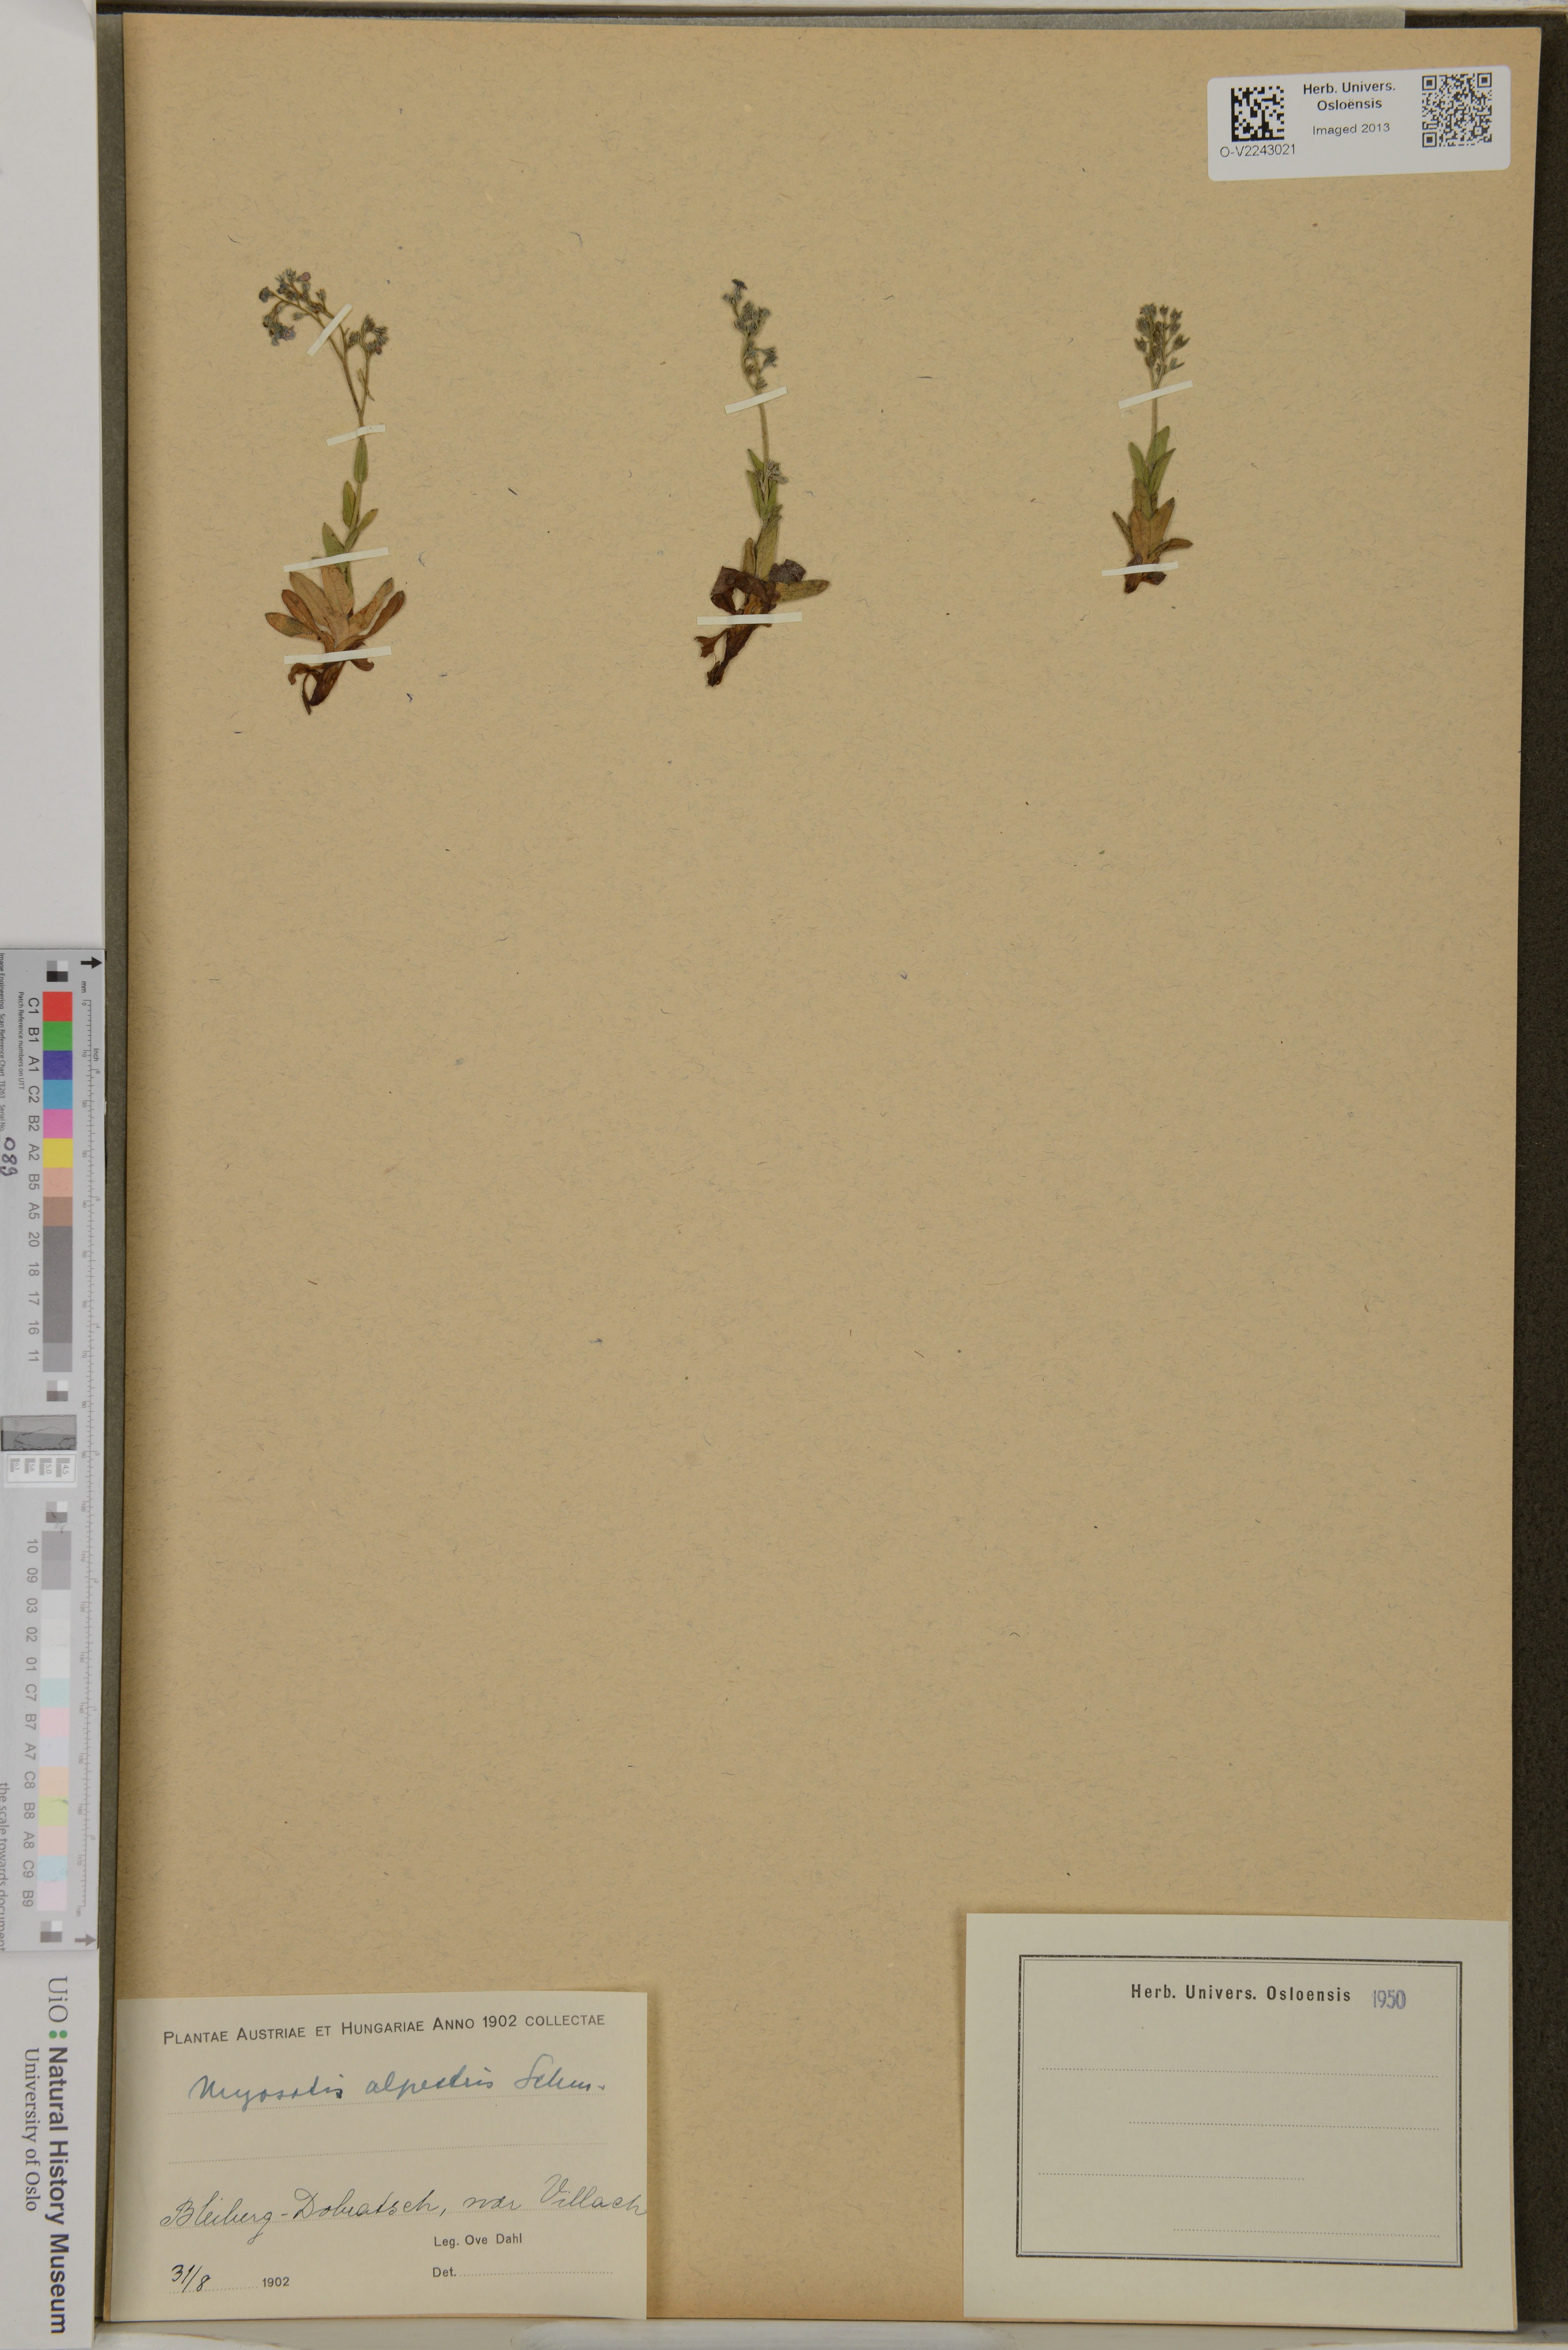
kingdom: Plantae
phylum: Tracheophyta
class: Magnoliopsida
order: Boraginales
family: Boraginaceae
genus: Myosotis
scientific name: Myosotis alpestris
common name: Alpine forget-me-not
